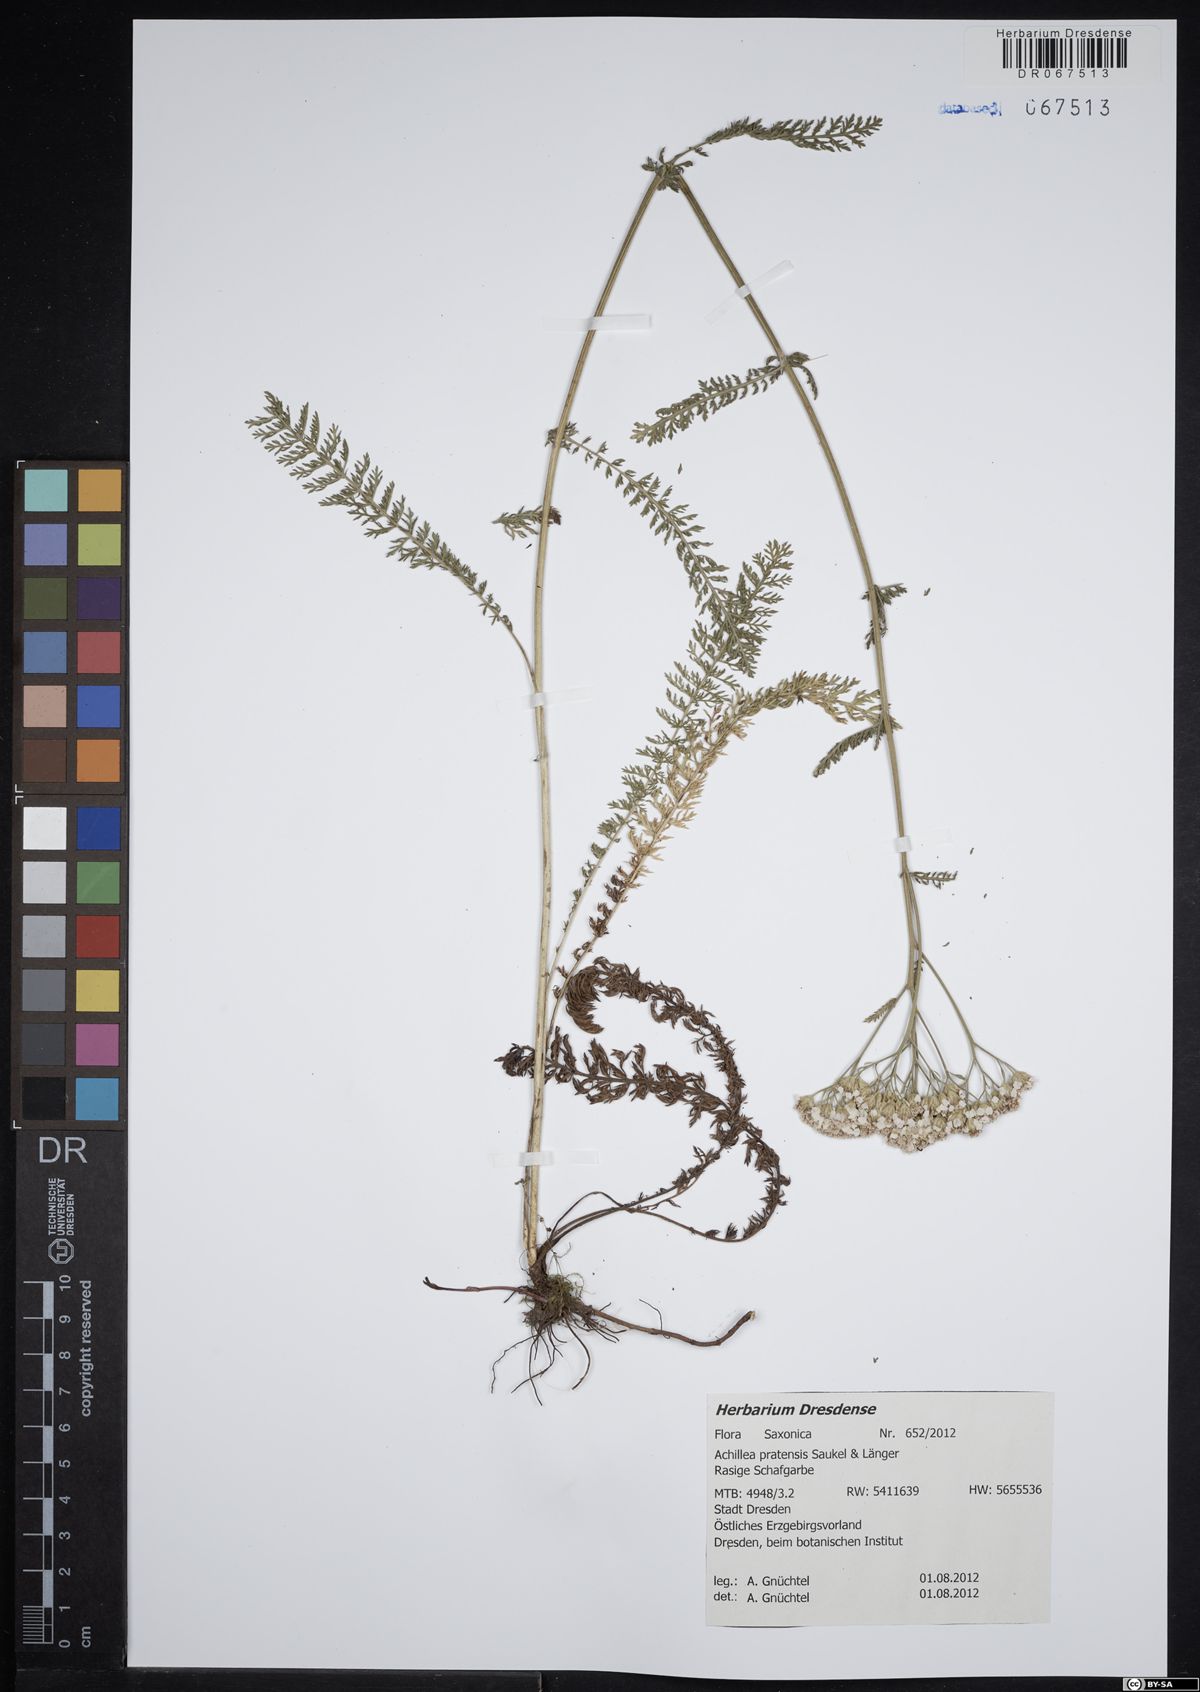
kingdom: Plantae
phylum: Tracheophyta
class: Magnoliopsida
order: Asterales
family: Asteraceae
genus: Achillea
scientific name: Achillea pratensis
